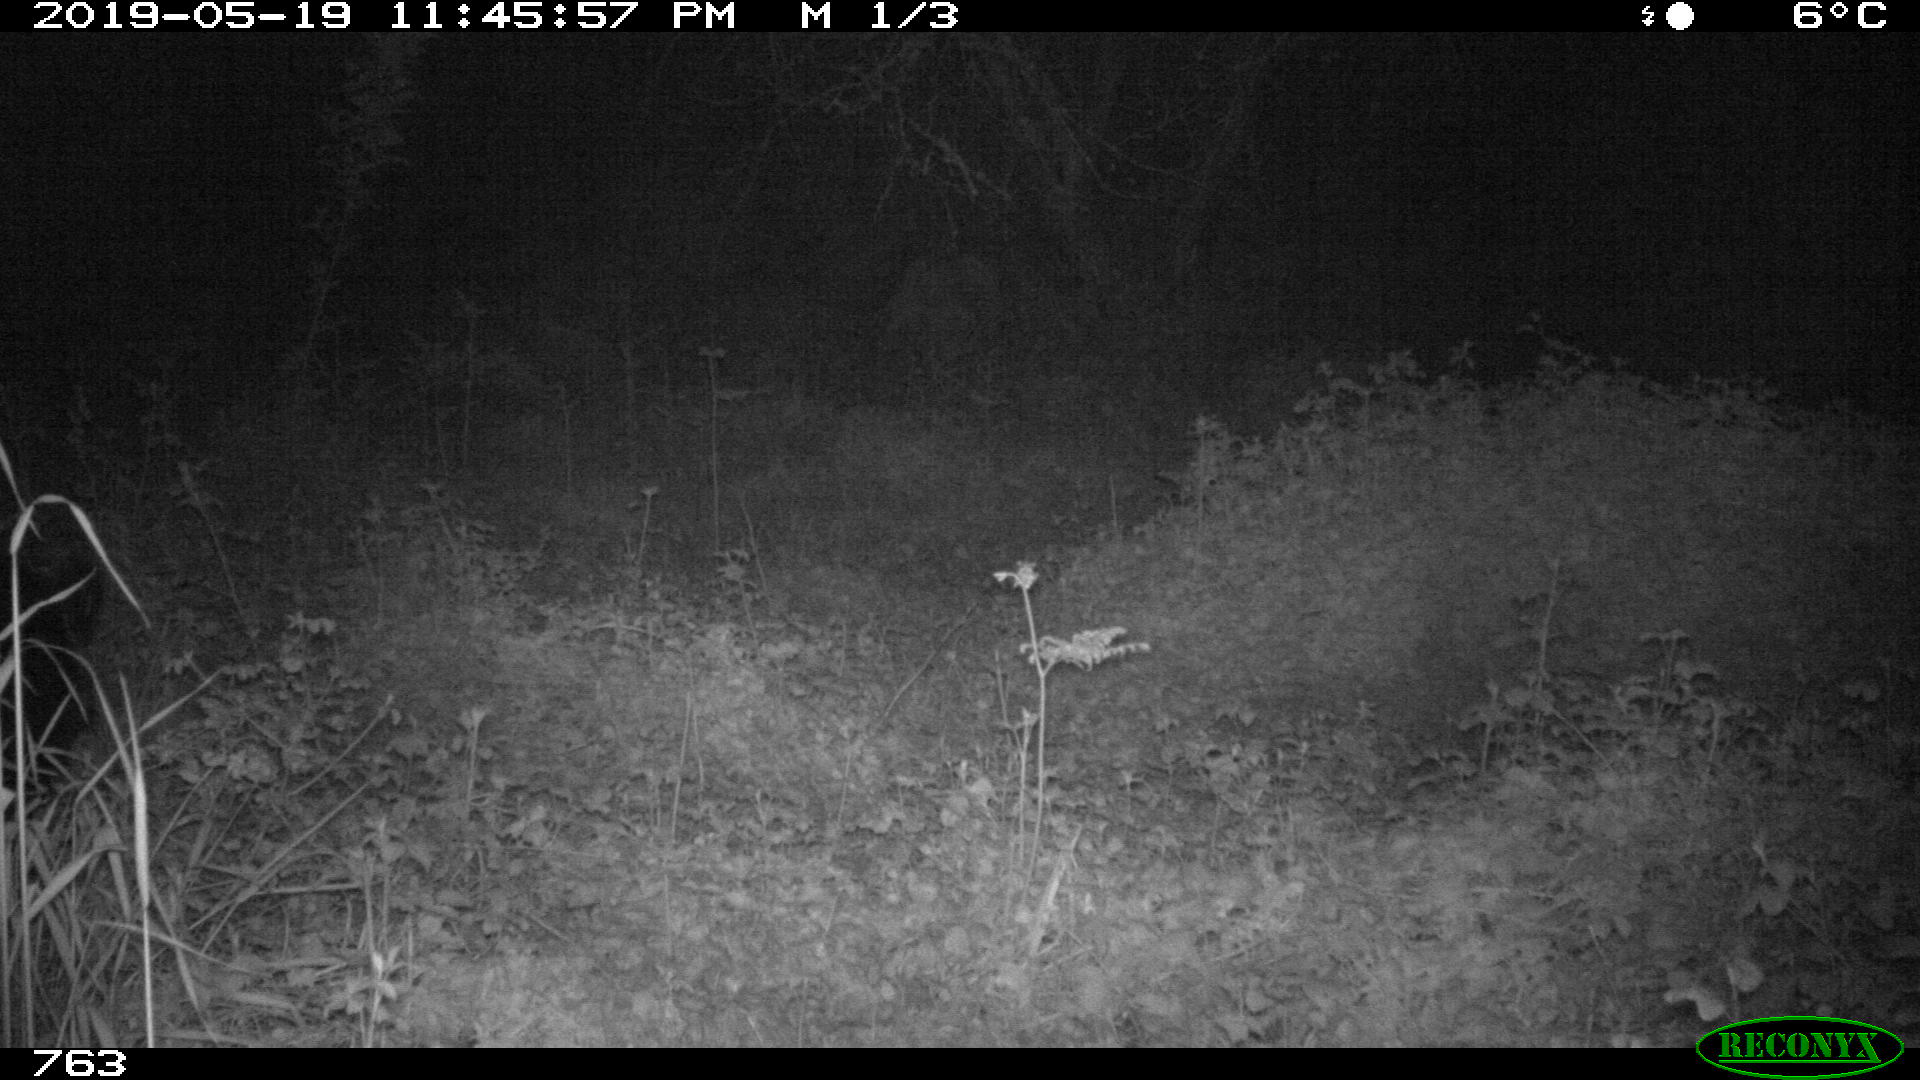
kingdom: Animalia
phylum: Chordata
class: Mammalia
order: Artiodactyla
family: Suidae
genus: Sus
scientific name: Sus scrofa
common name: Wild boar
